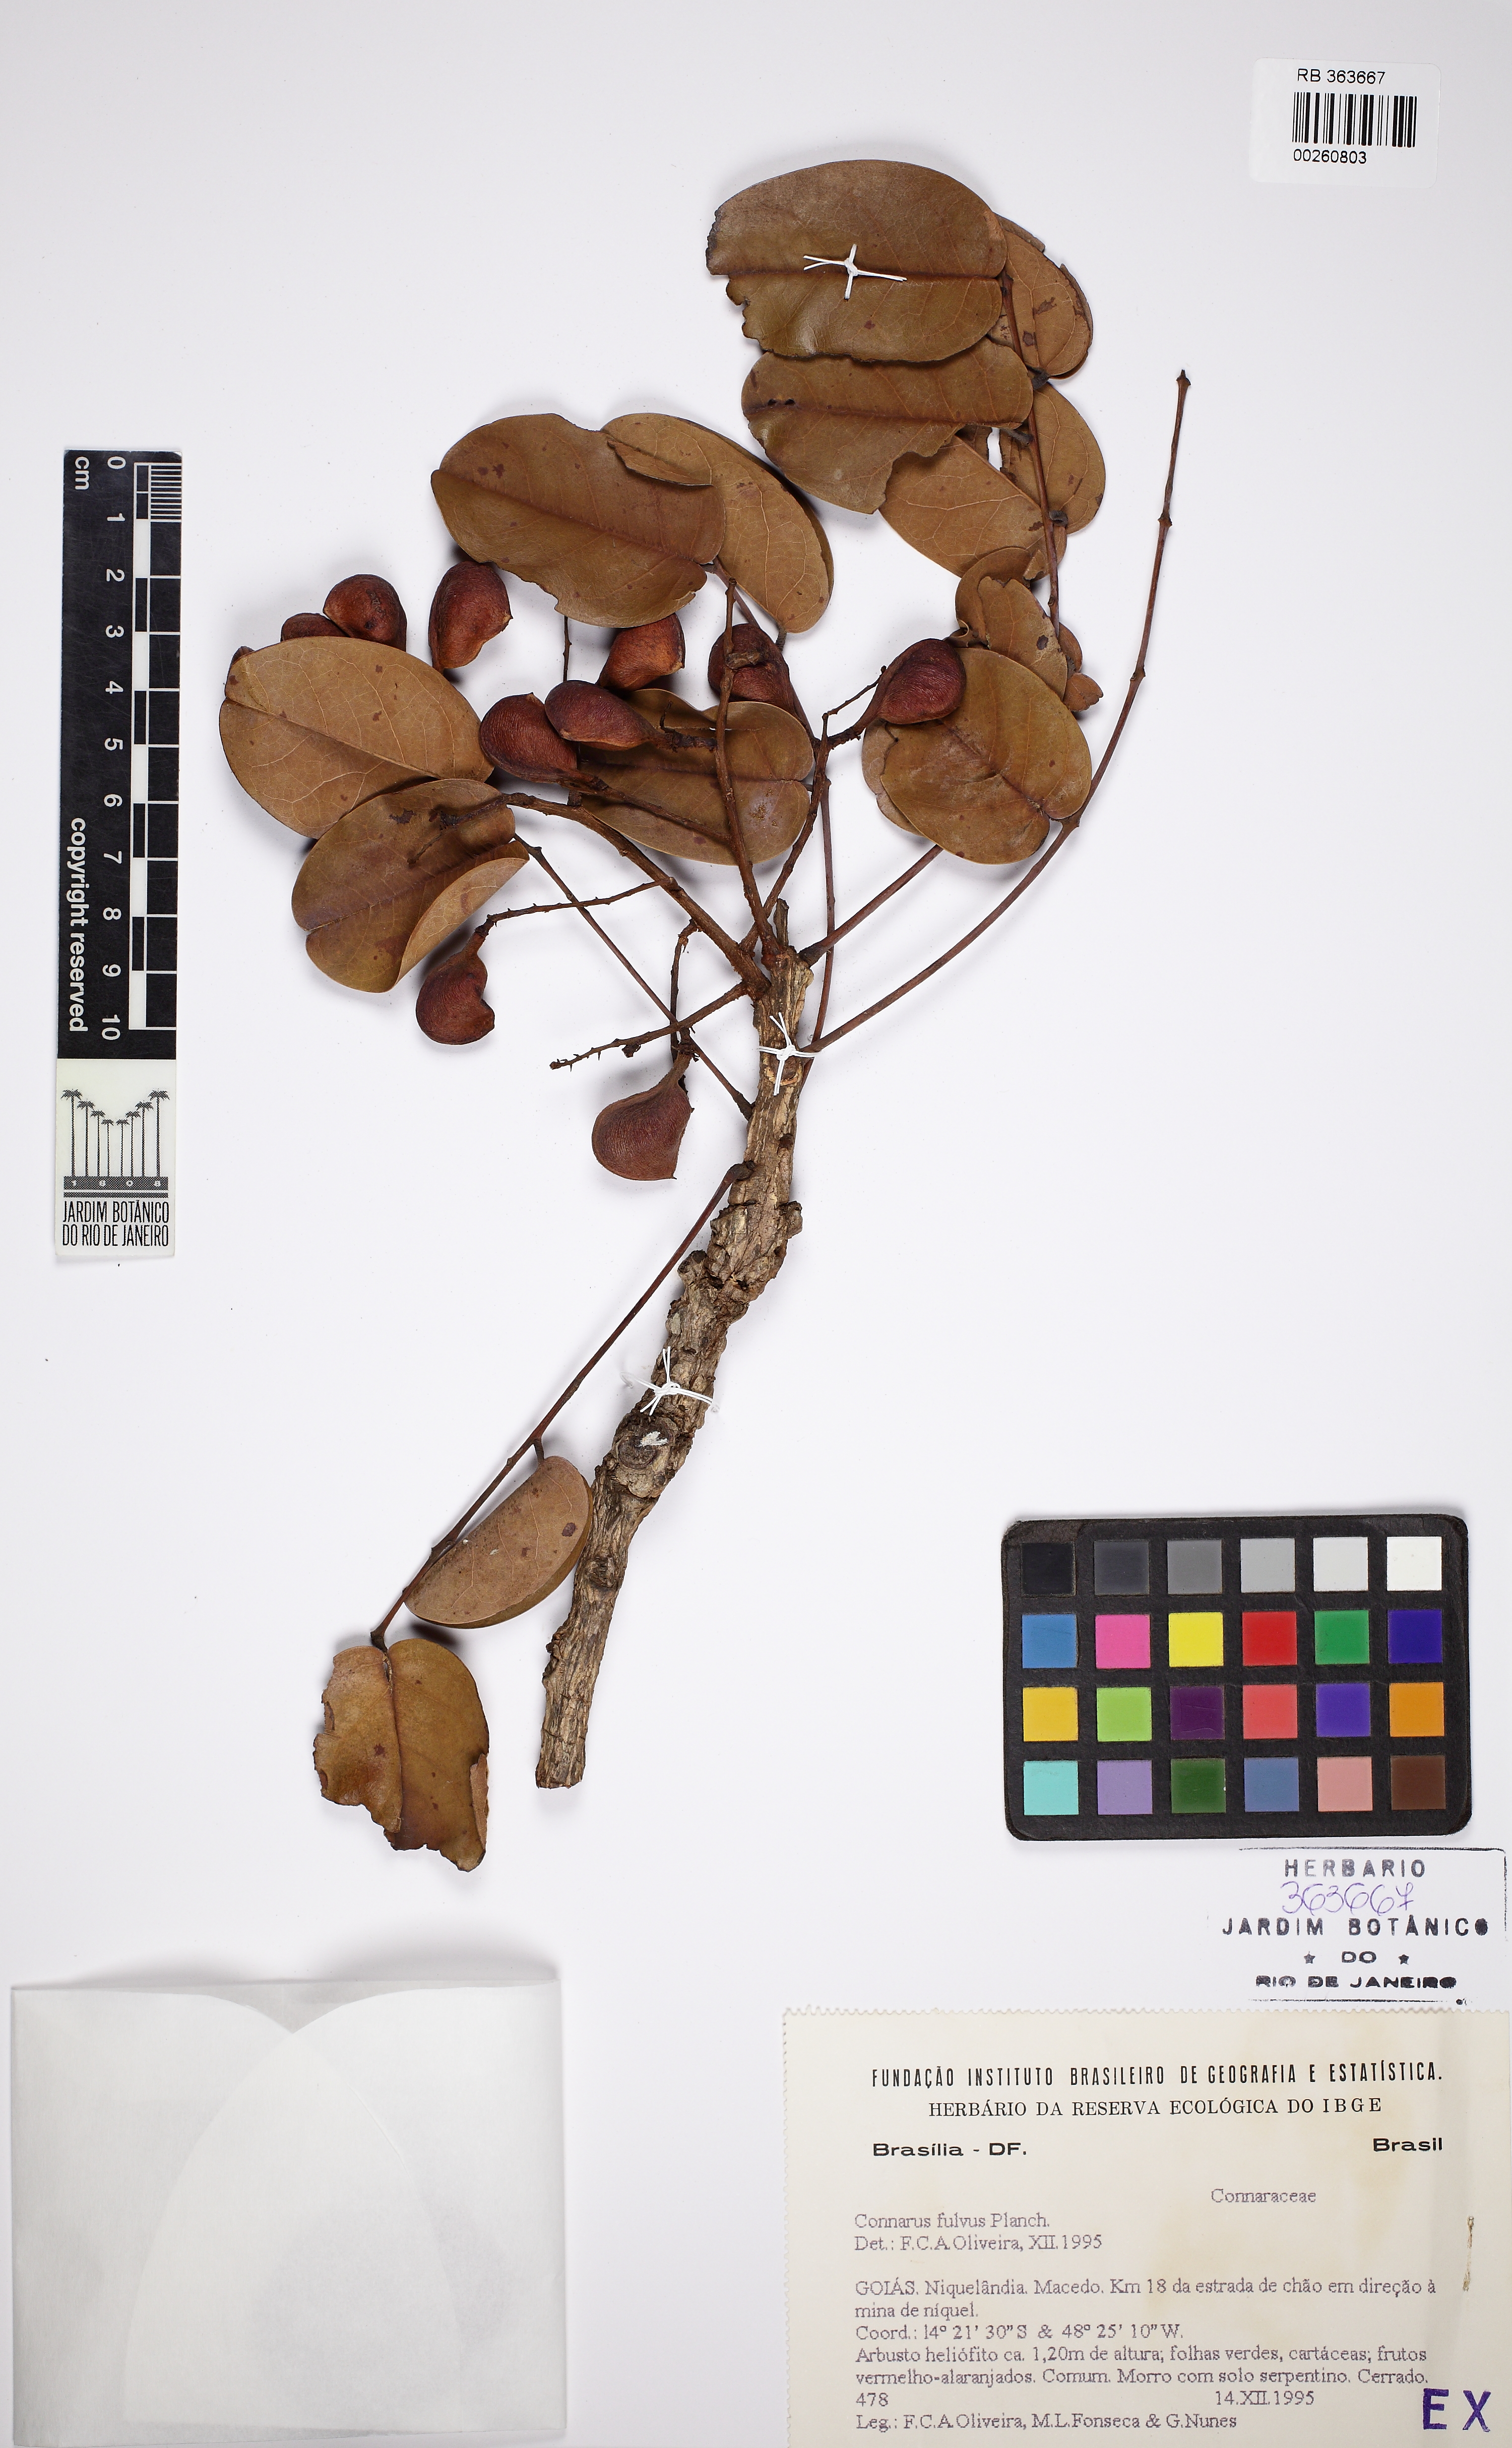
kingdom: Plantae
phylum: Tracheophyta
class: Magnoliopsida
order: Oxalidales
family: Connaraceae
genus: Connarus
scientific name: Connarus suberosus
